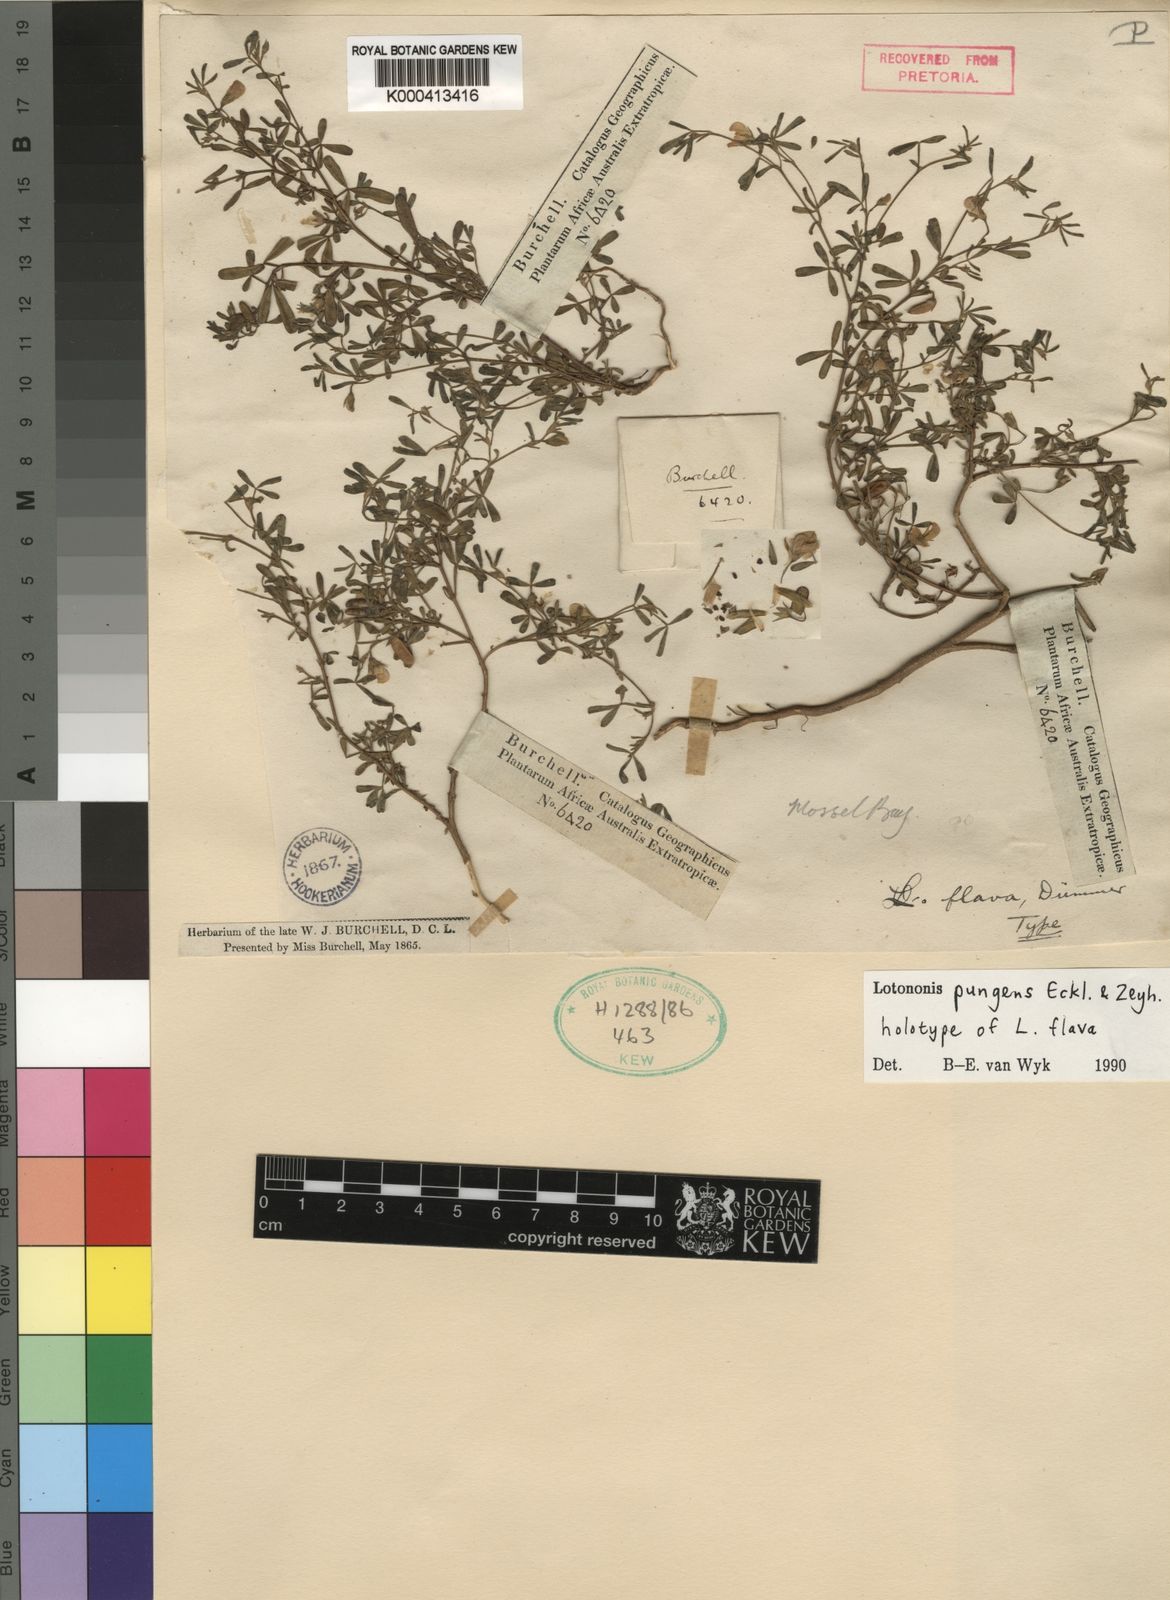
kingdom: Plantae
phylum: Tracheophyta
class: Magnoliopsida
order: Fabales
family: Fabaceae
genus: Lotononis
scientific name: Lotononis pungens
